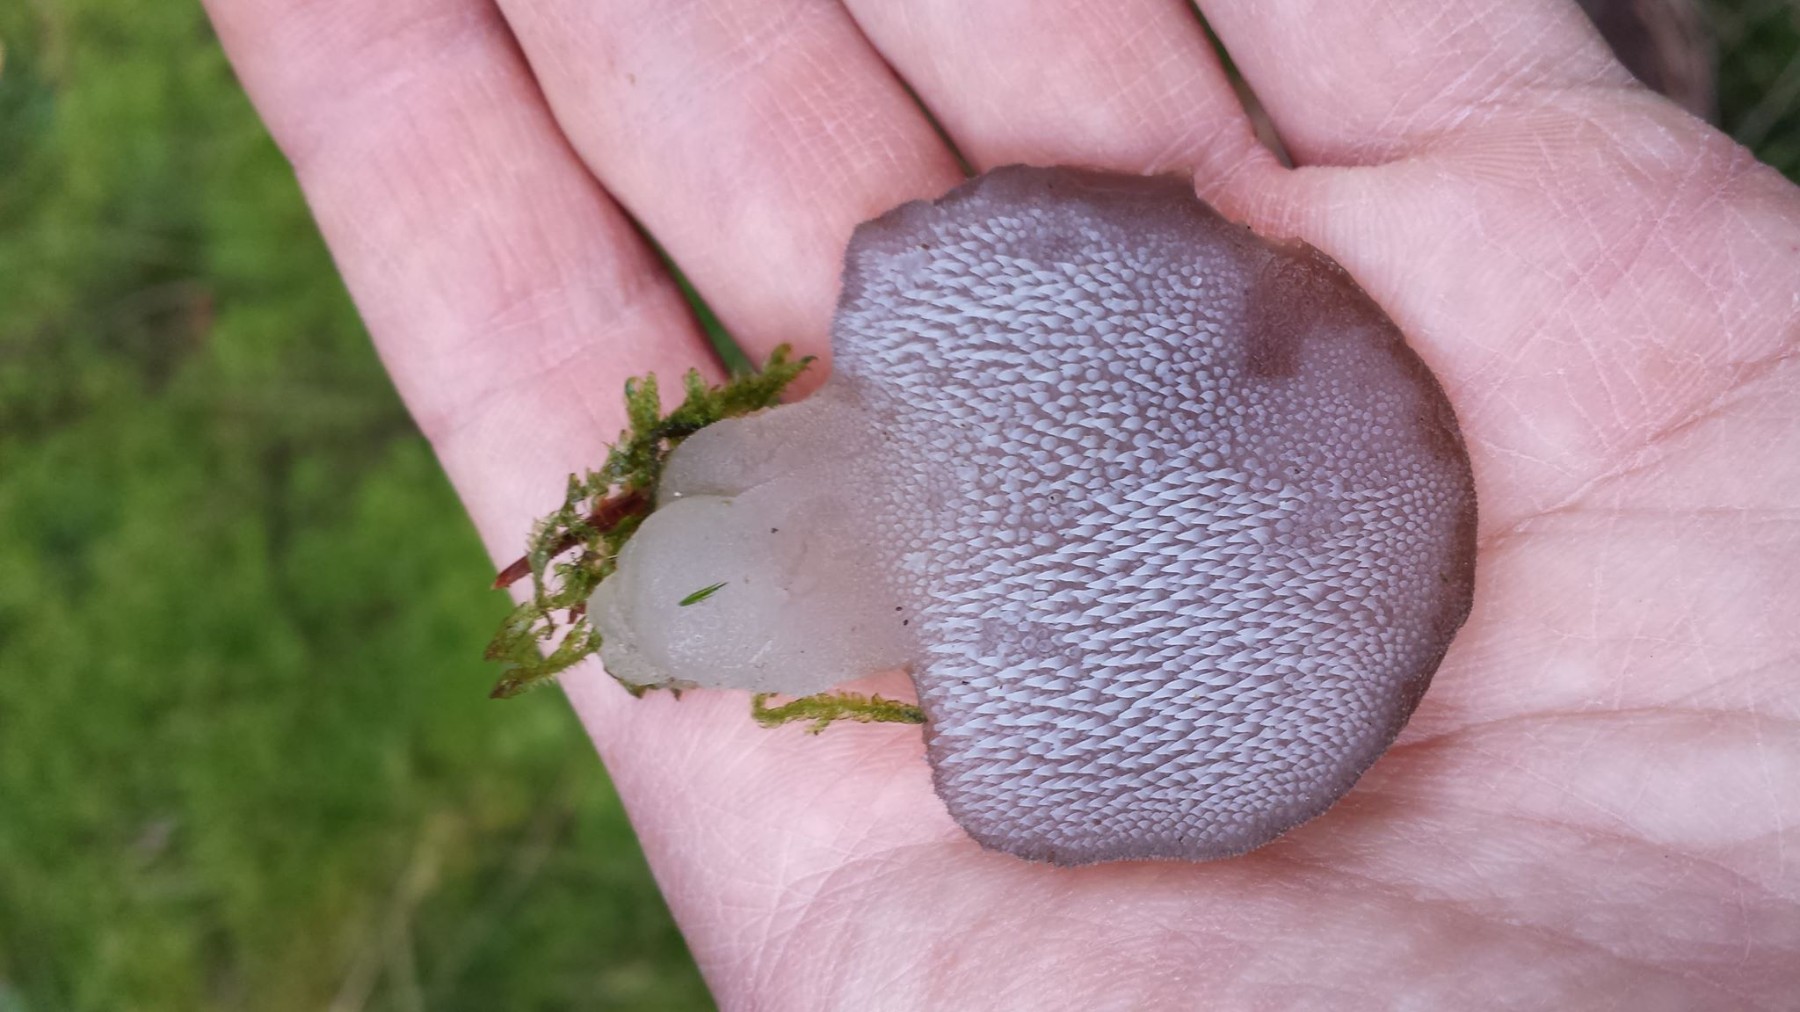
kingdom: Fungi
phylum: Basidiomycota
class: Agaricomycetes
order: Auriculariales
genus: Pseudohydnum
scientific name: Pseudohydnum gelatinosum
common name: bævretand
